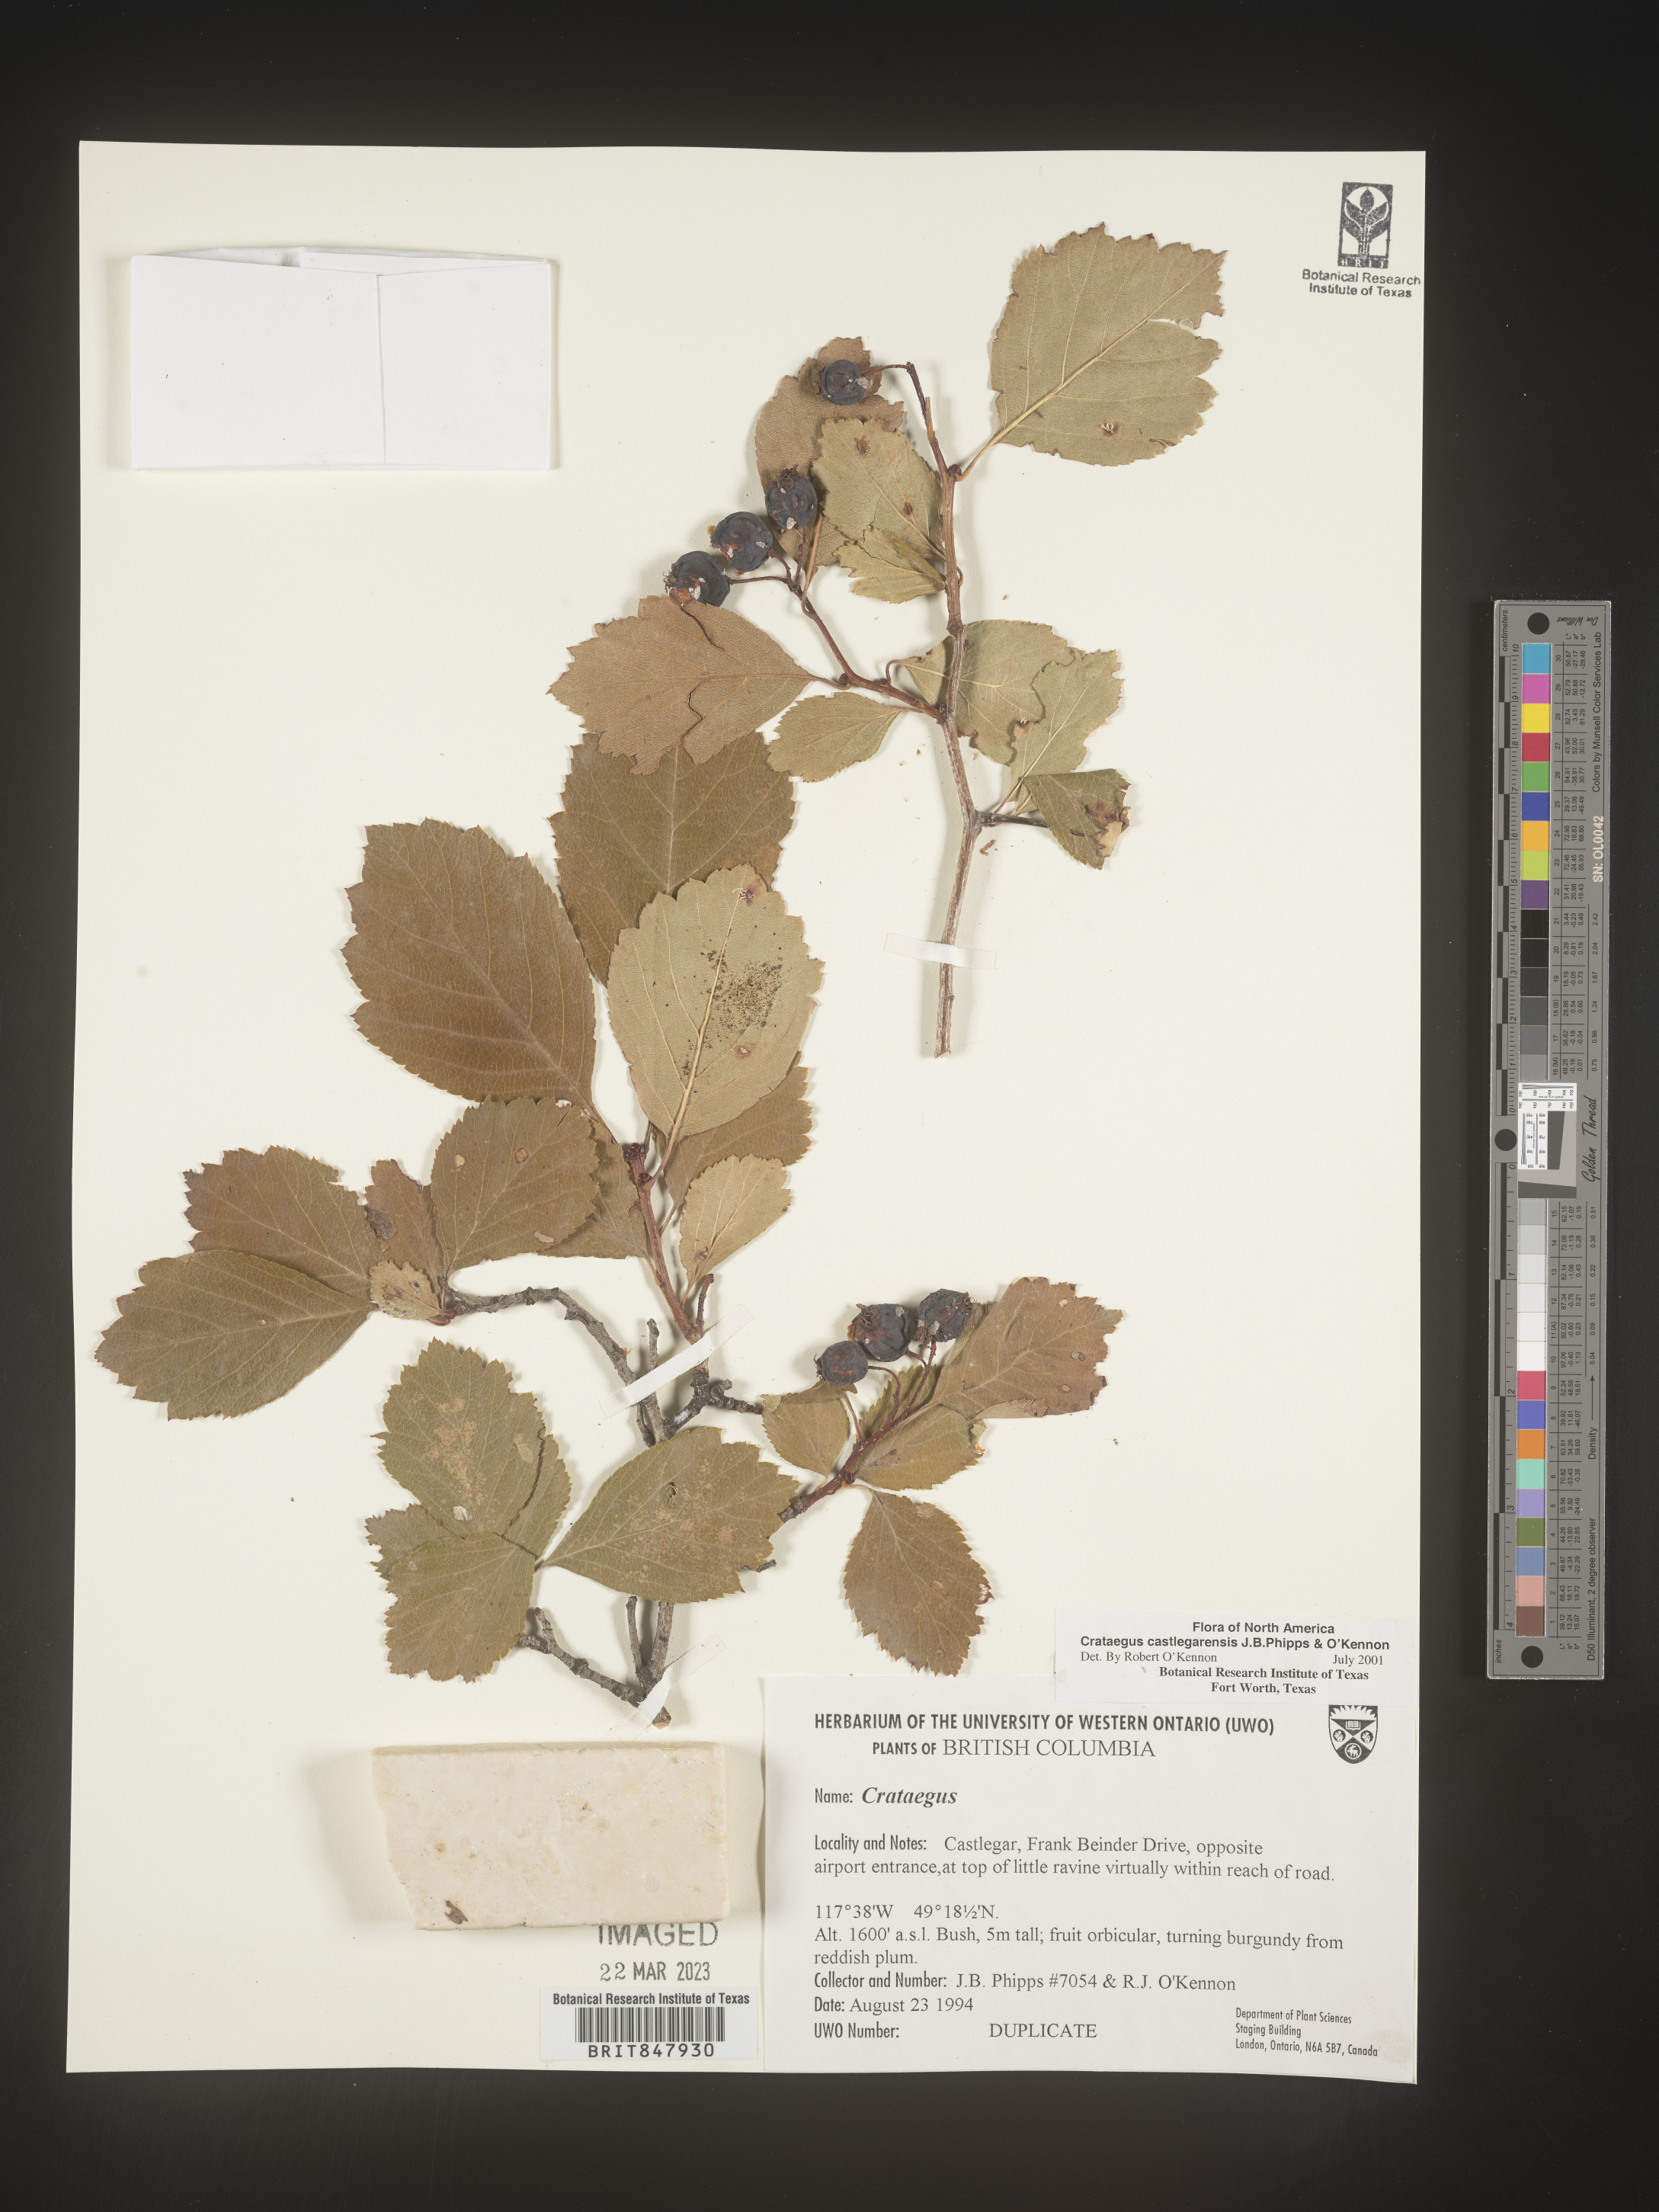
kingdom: Plantae
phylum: Tracheophyta
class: Magnoliopsida
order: Rosales
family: Rosaceae
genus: Crataegus
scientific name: Crataegus castlegarensis
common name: Castlegar hawthorn
